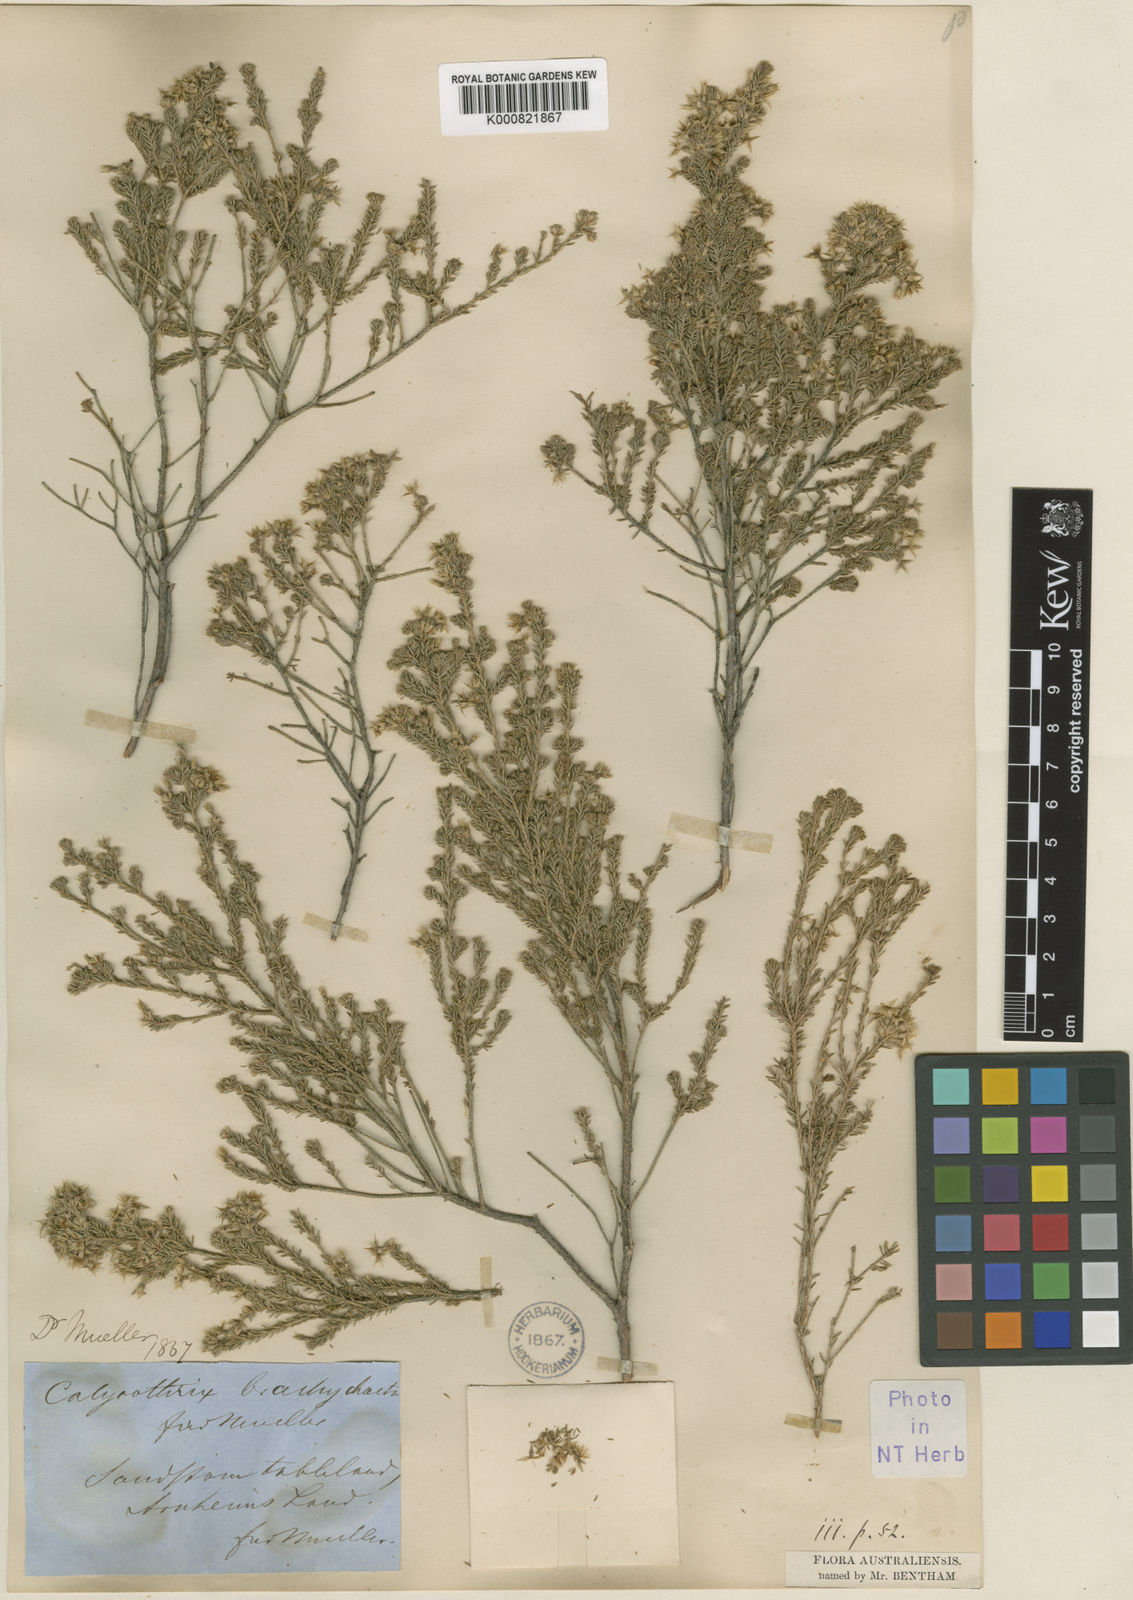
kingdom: Plantae
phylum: Tracheophyta
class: Magnoliopsida
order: Myrtales
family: Myrtaceae
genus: Calytrix
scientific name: Calytrix brownii
